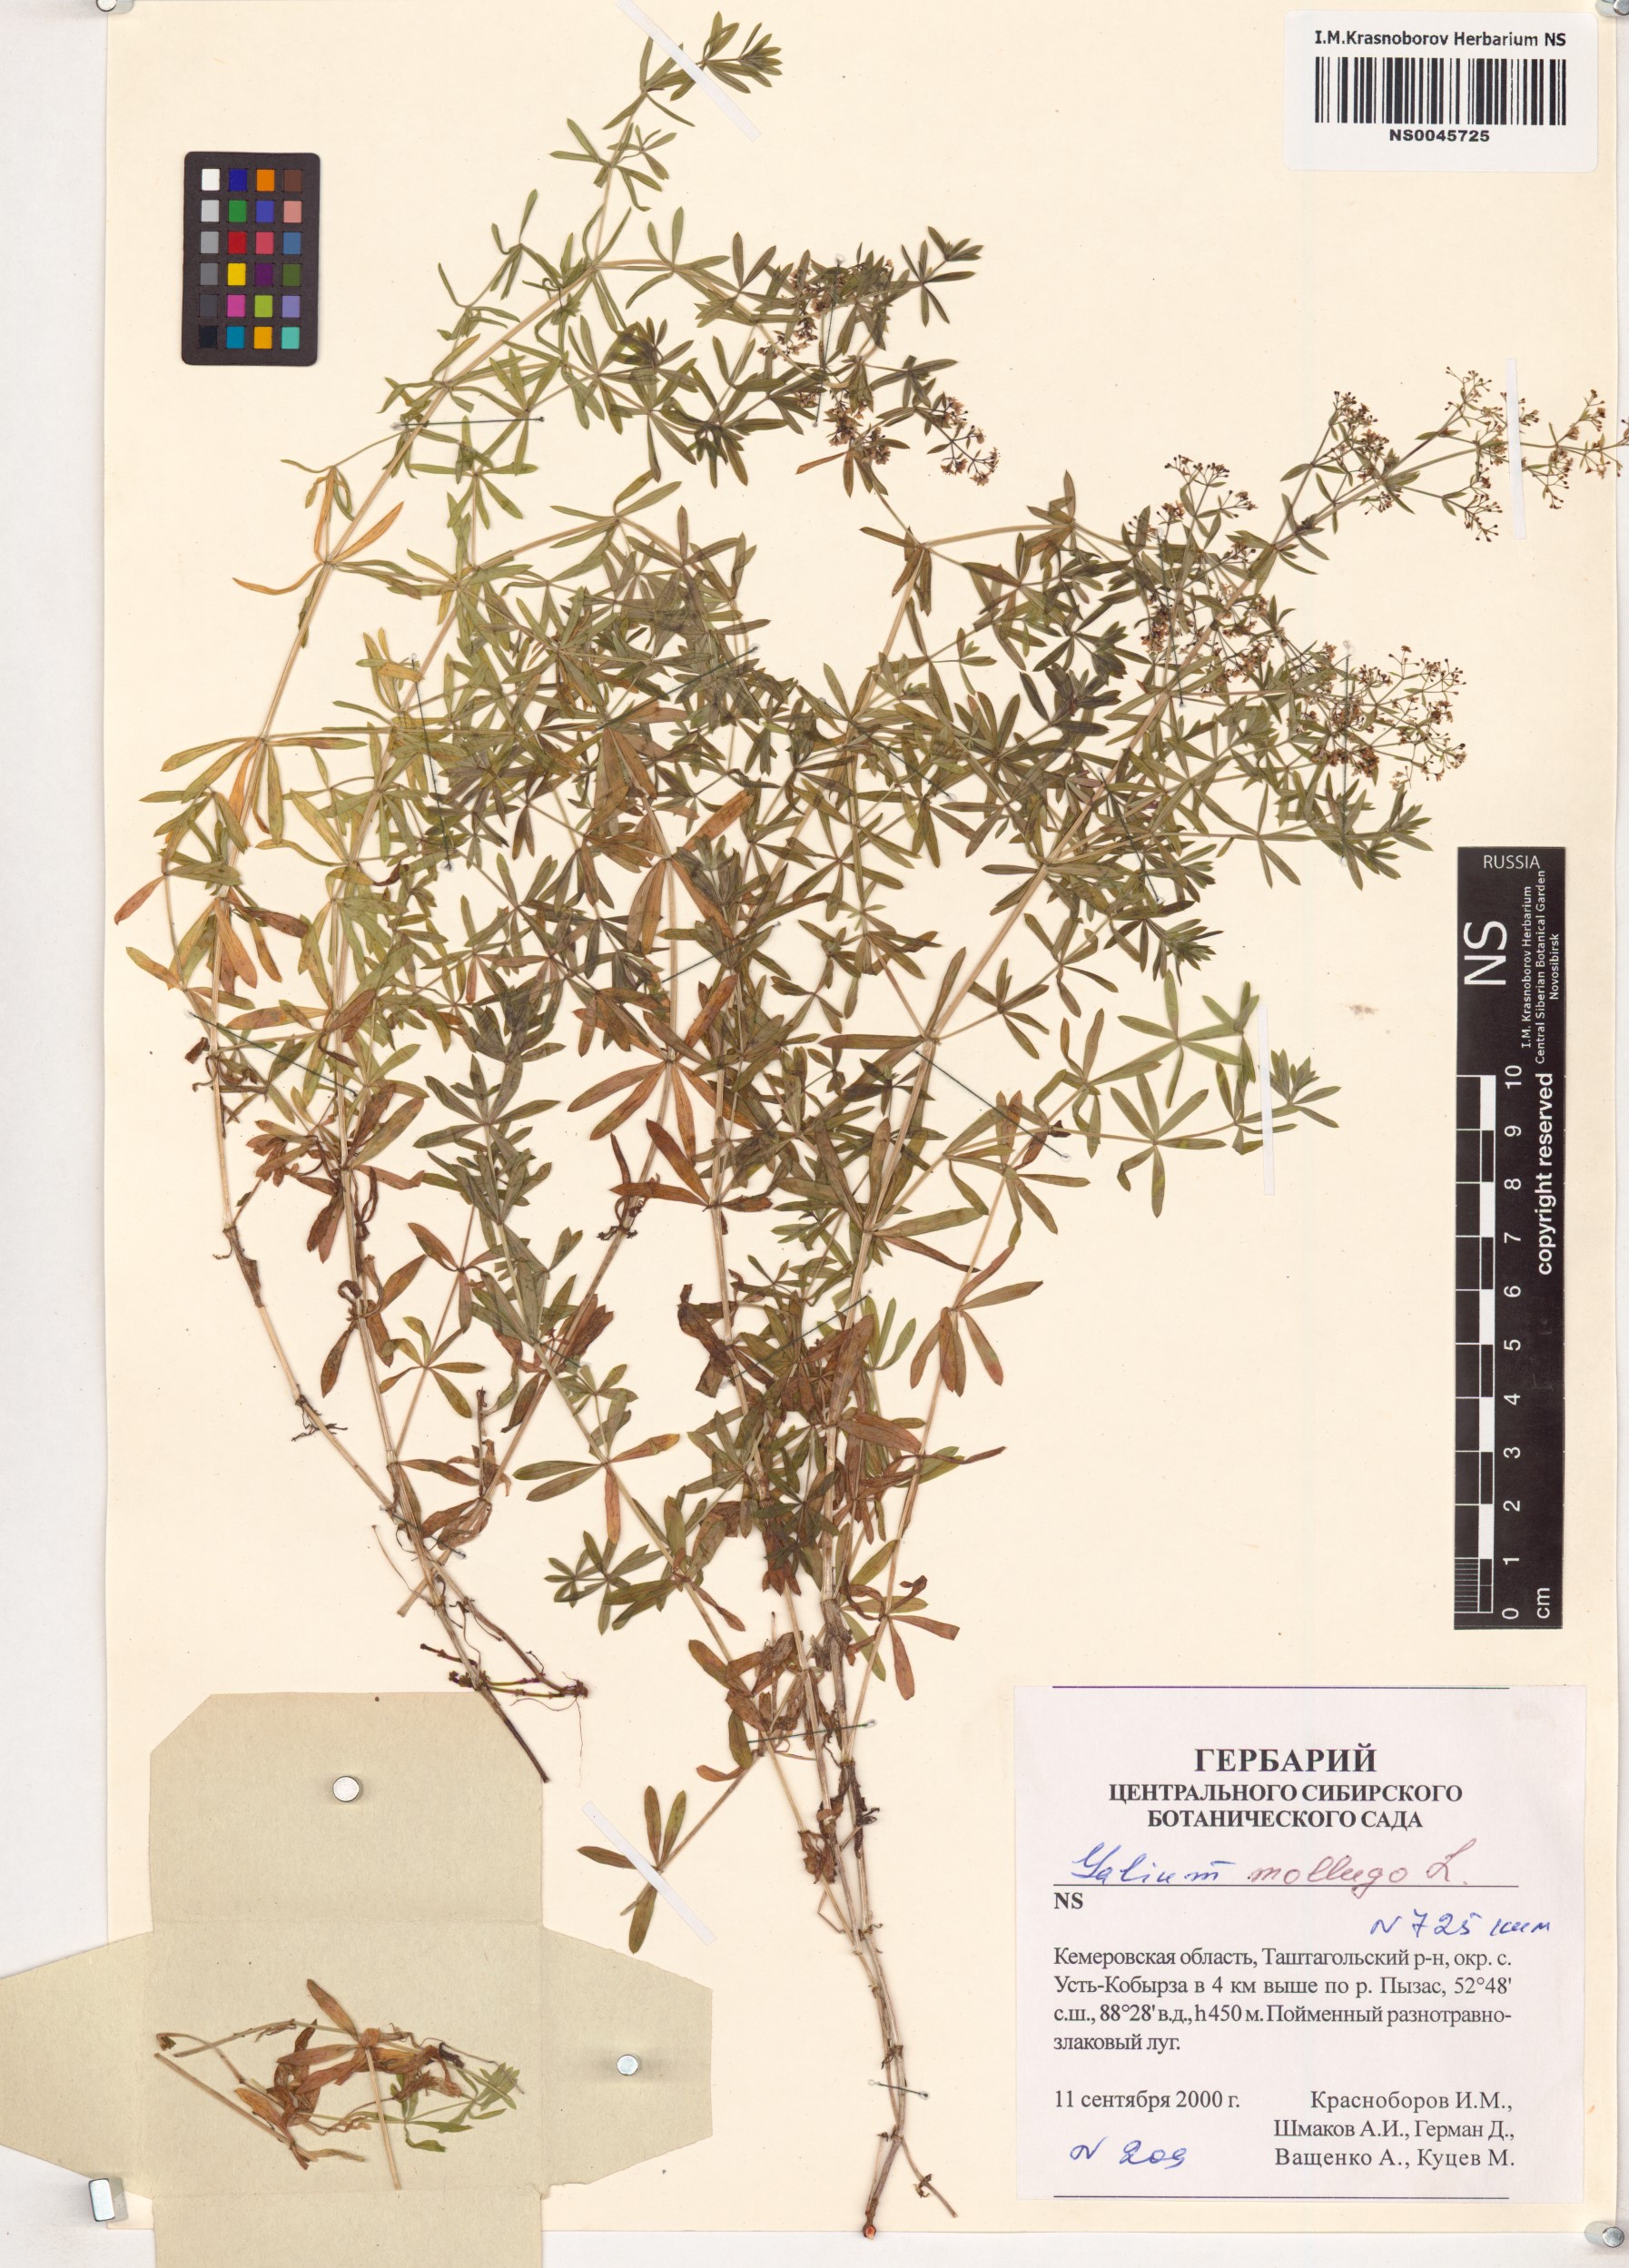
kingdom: Plantae
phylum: Tracheophyta
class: Magnoliopsida
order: Gentianales
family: Rubiaceae
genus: Galium
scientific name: Galium mollugo
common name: Hedge bedstraw
